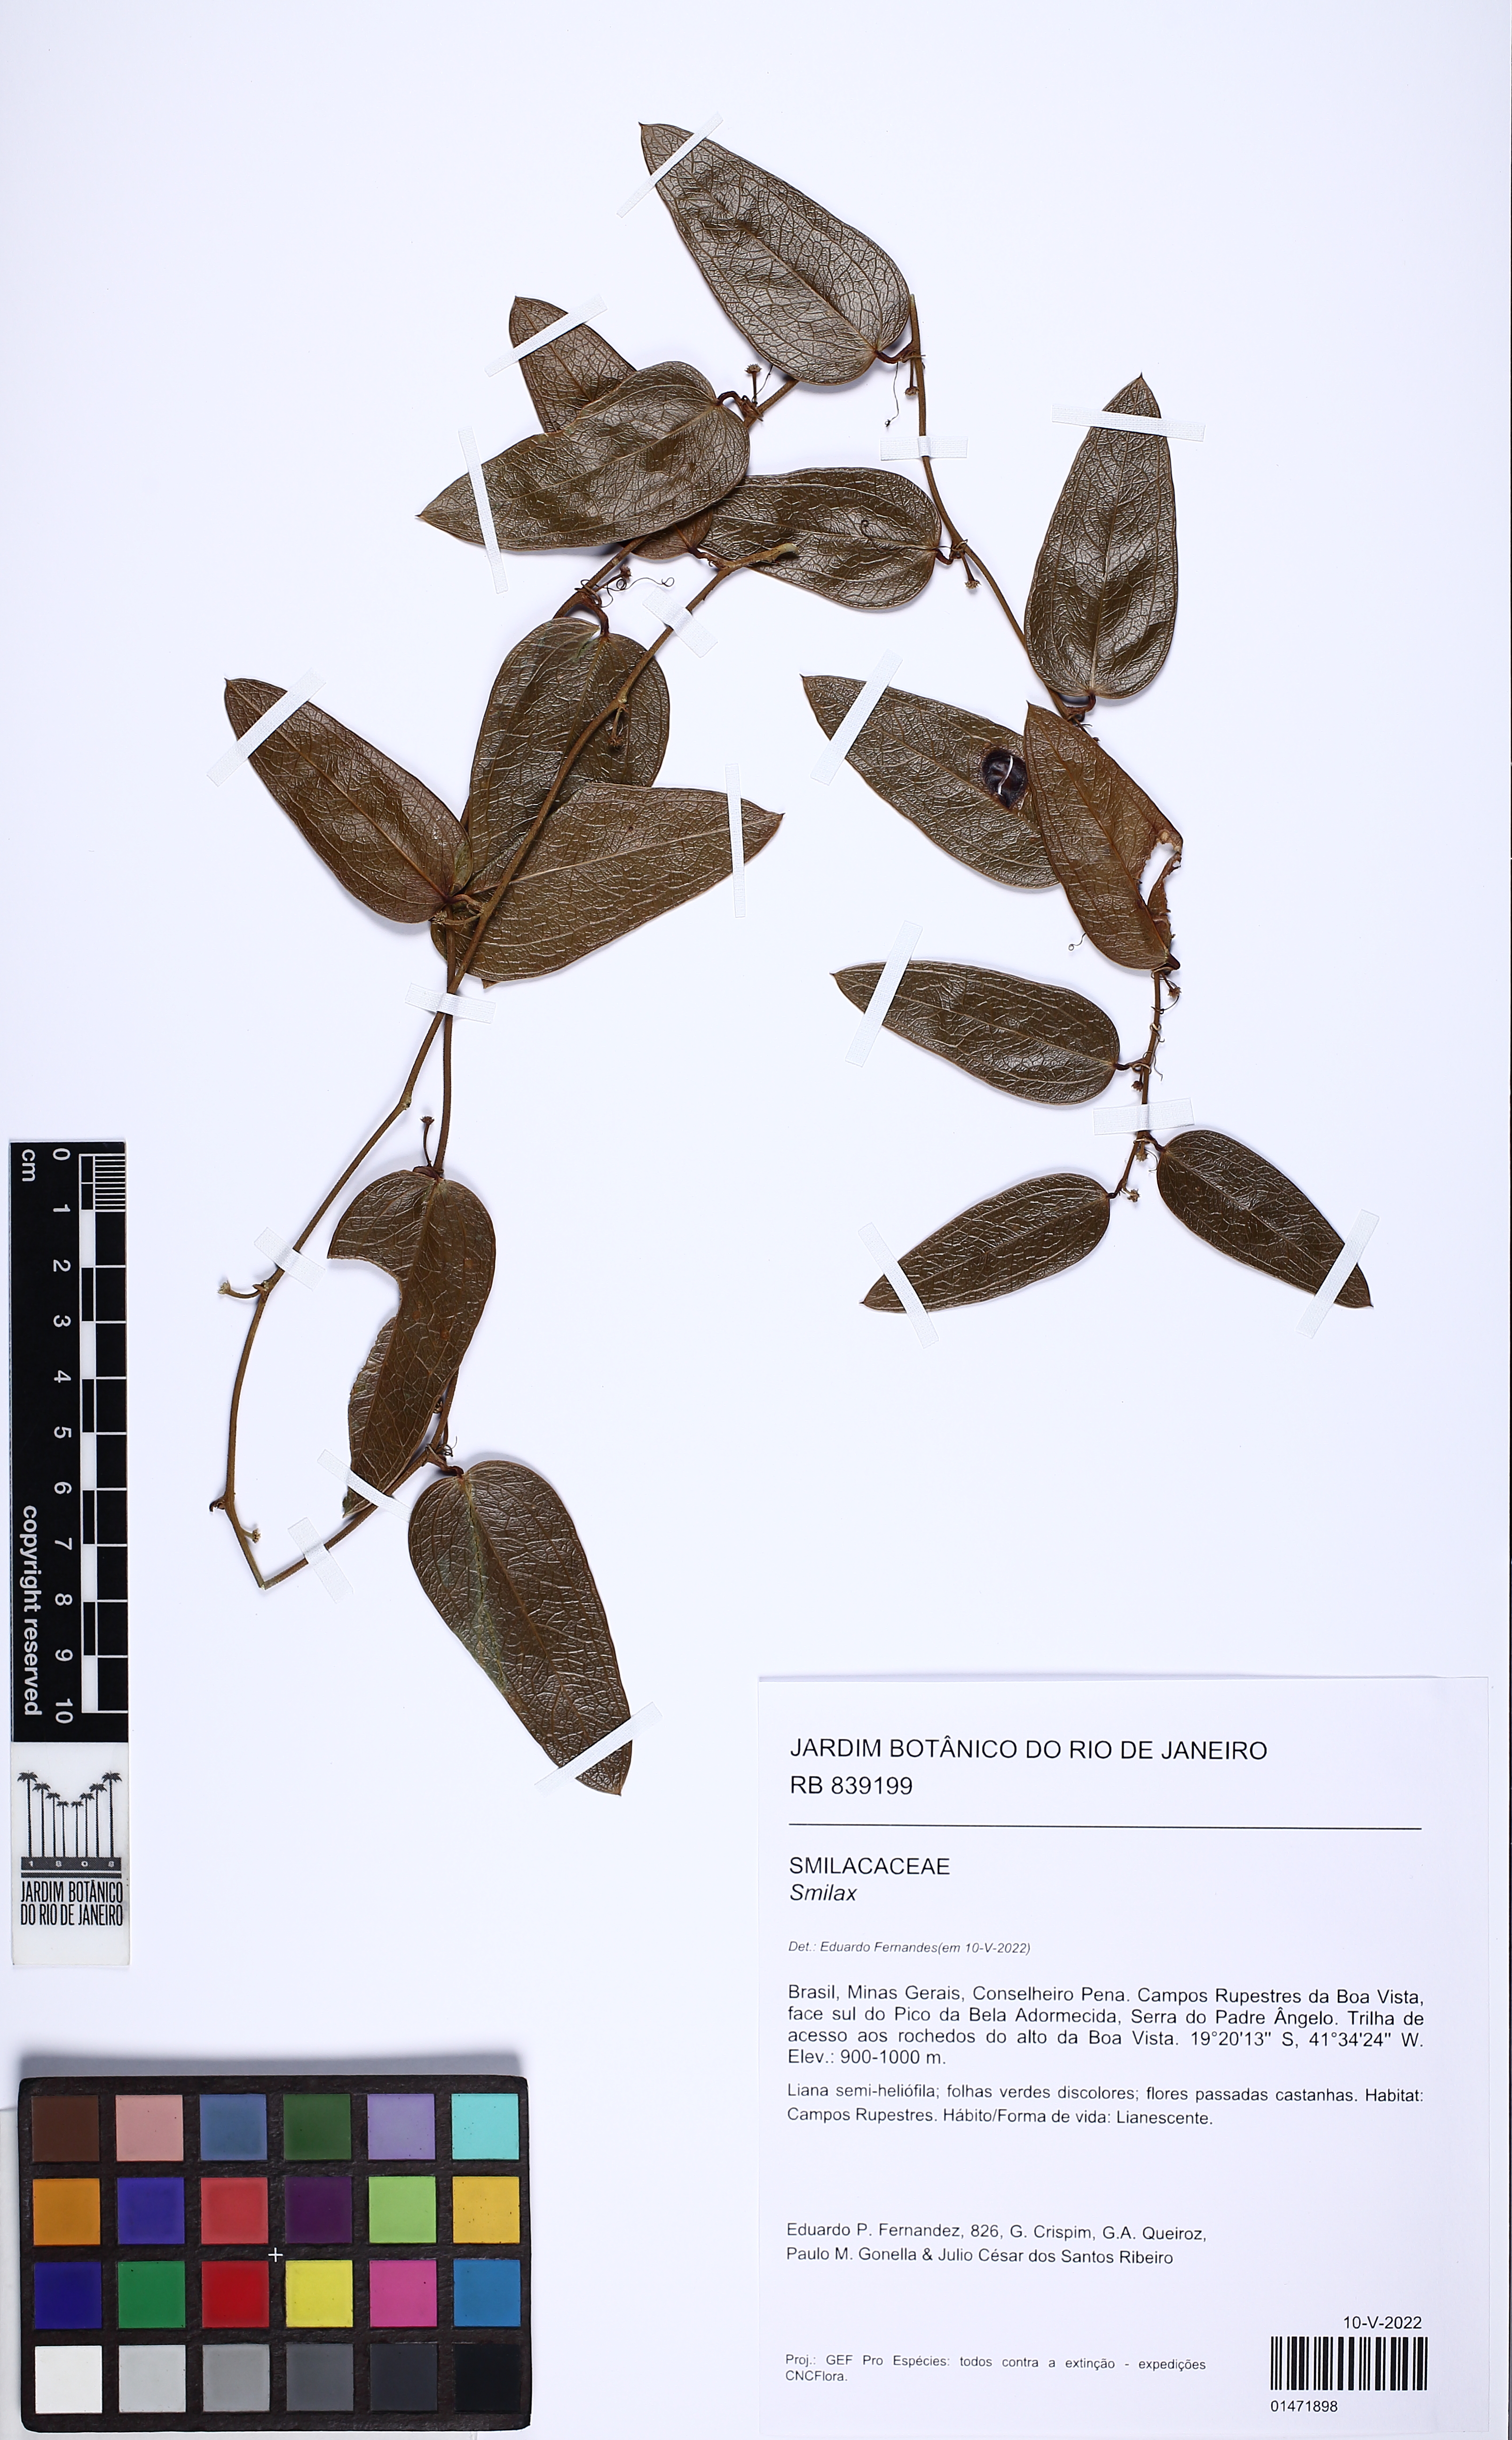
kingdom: Plantae
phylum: Tracheophyta
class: Liliopsida
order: Liliales
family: Smilacaceae
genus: Smilax
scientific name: Smilax
